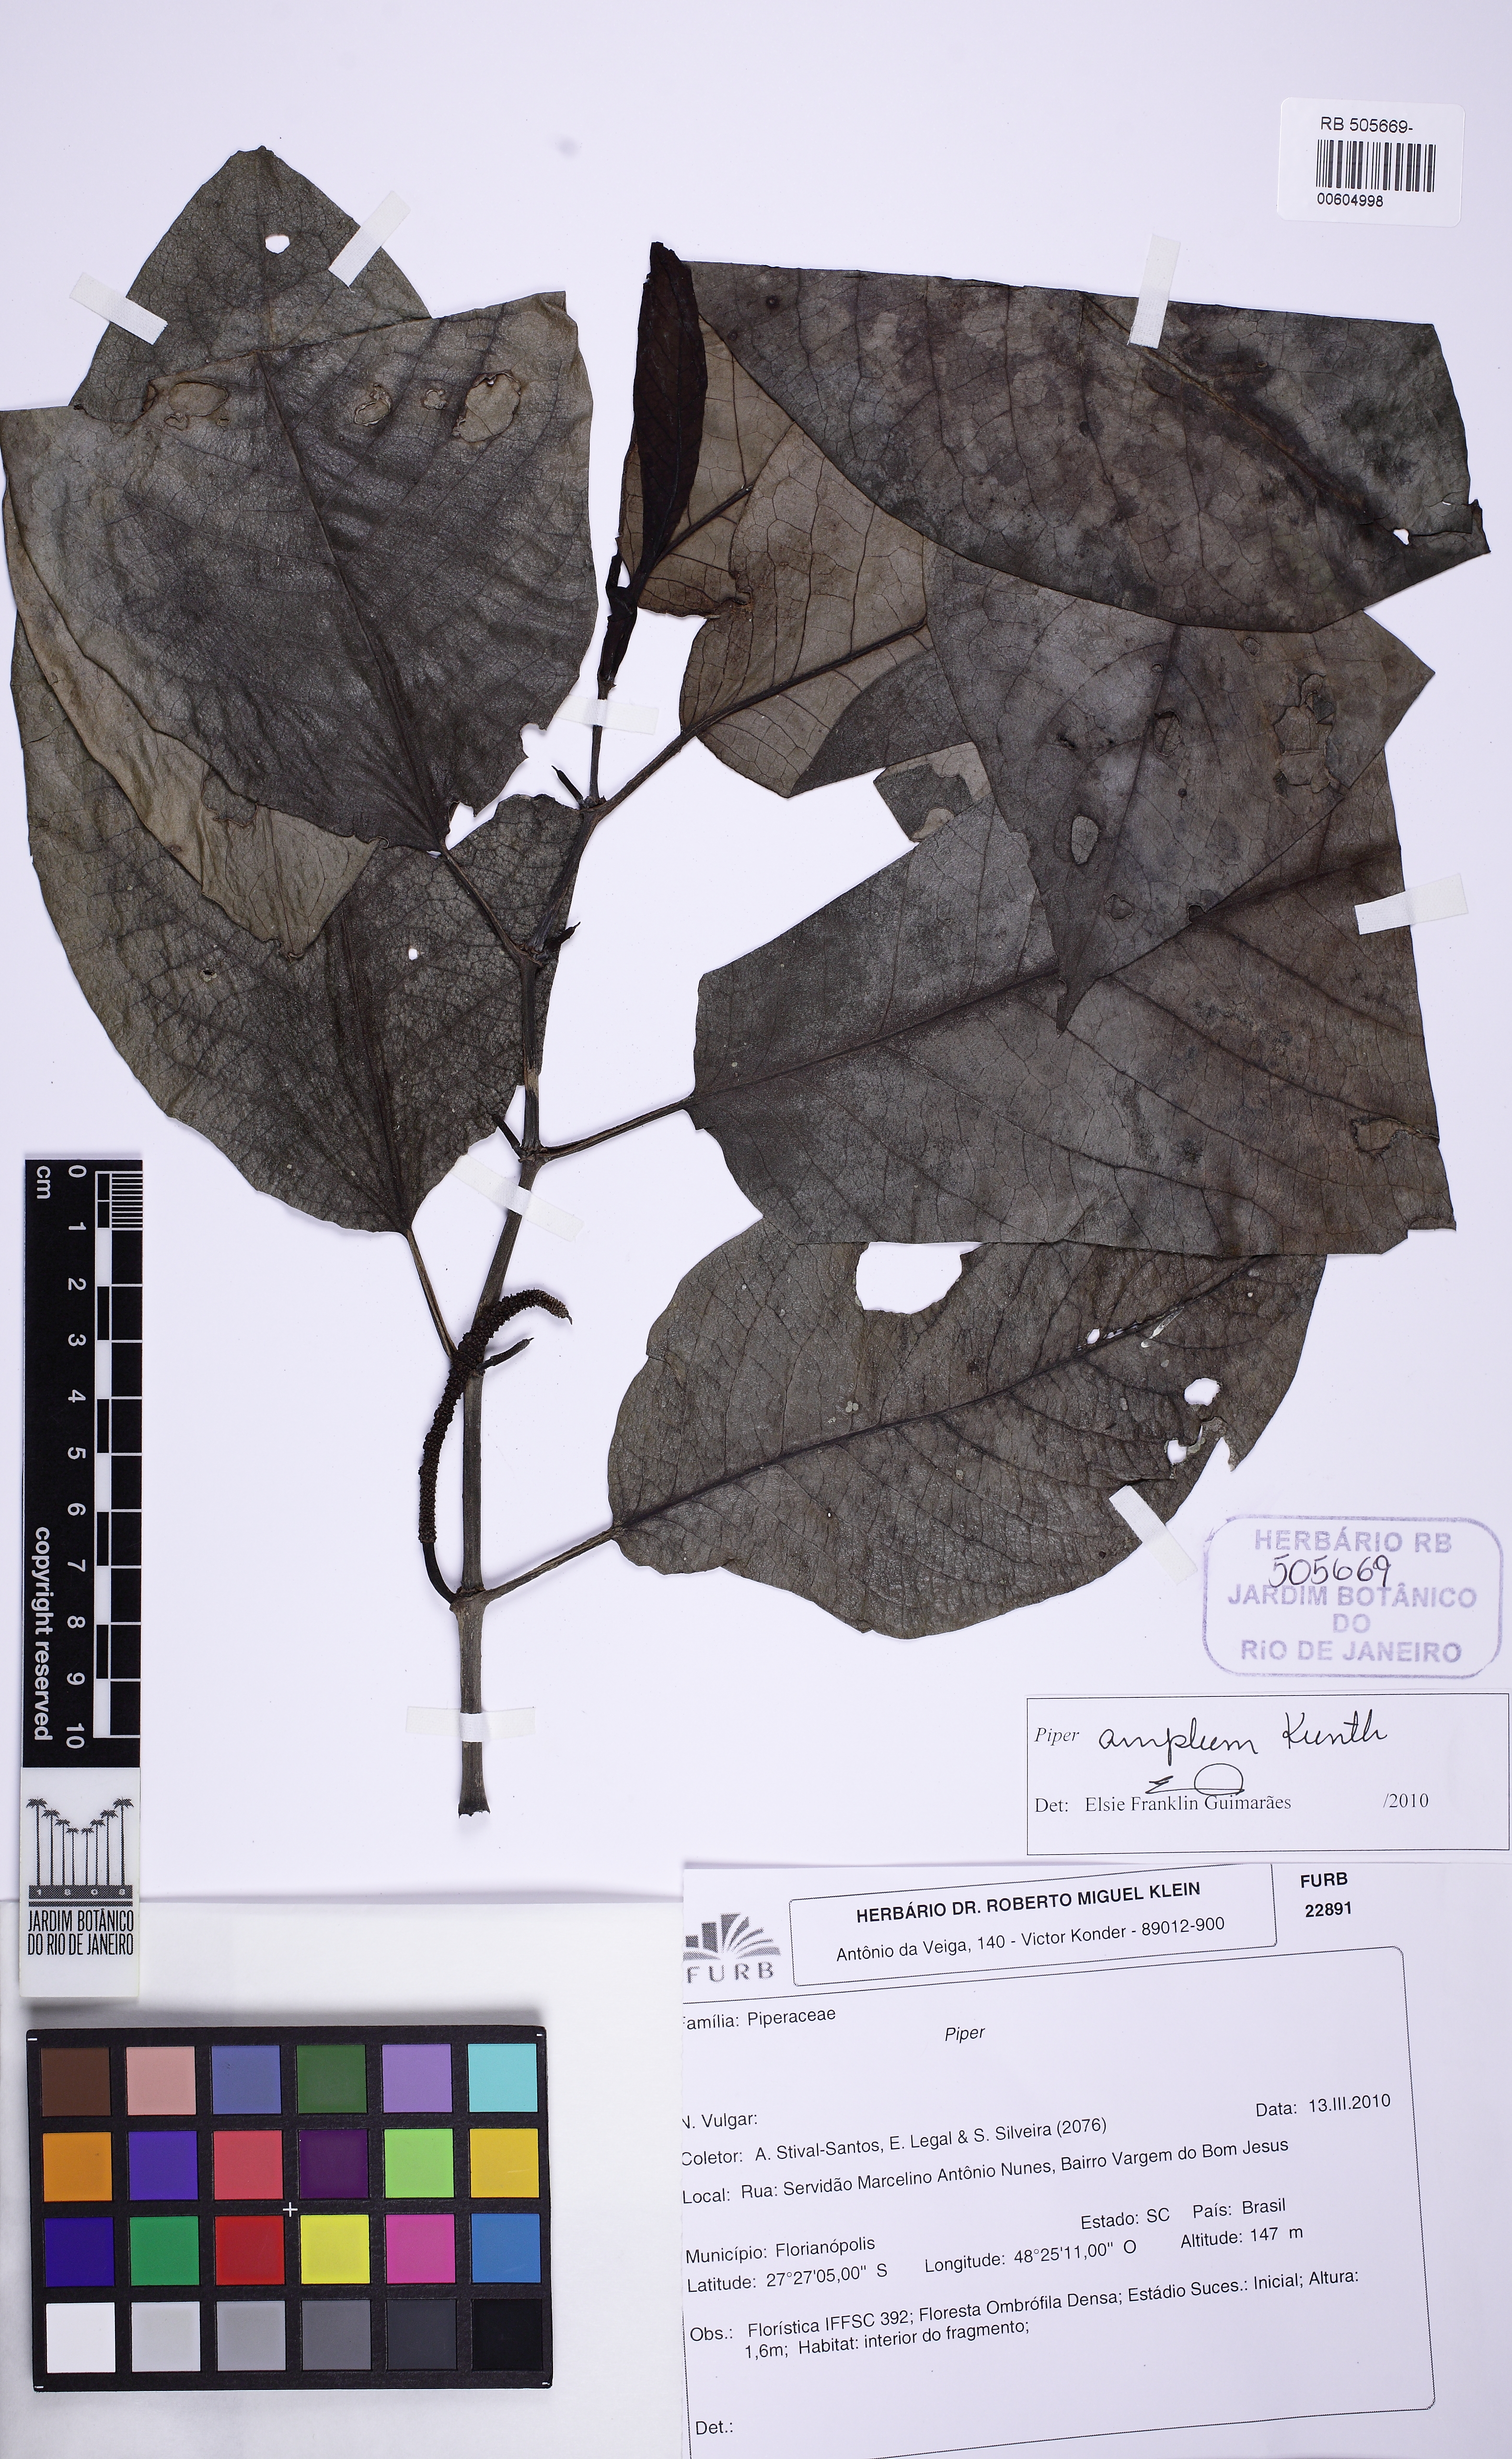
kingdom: Plantae
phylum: Tracheophyta
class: Magnoliopsida
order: Piperales
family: Piperaceae
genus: Piper
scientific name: Piper fluminense
